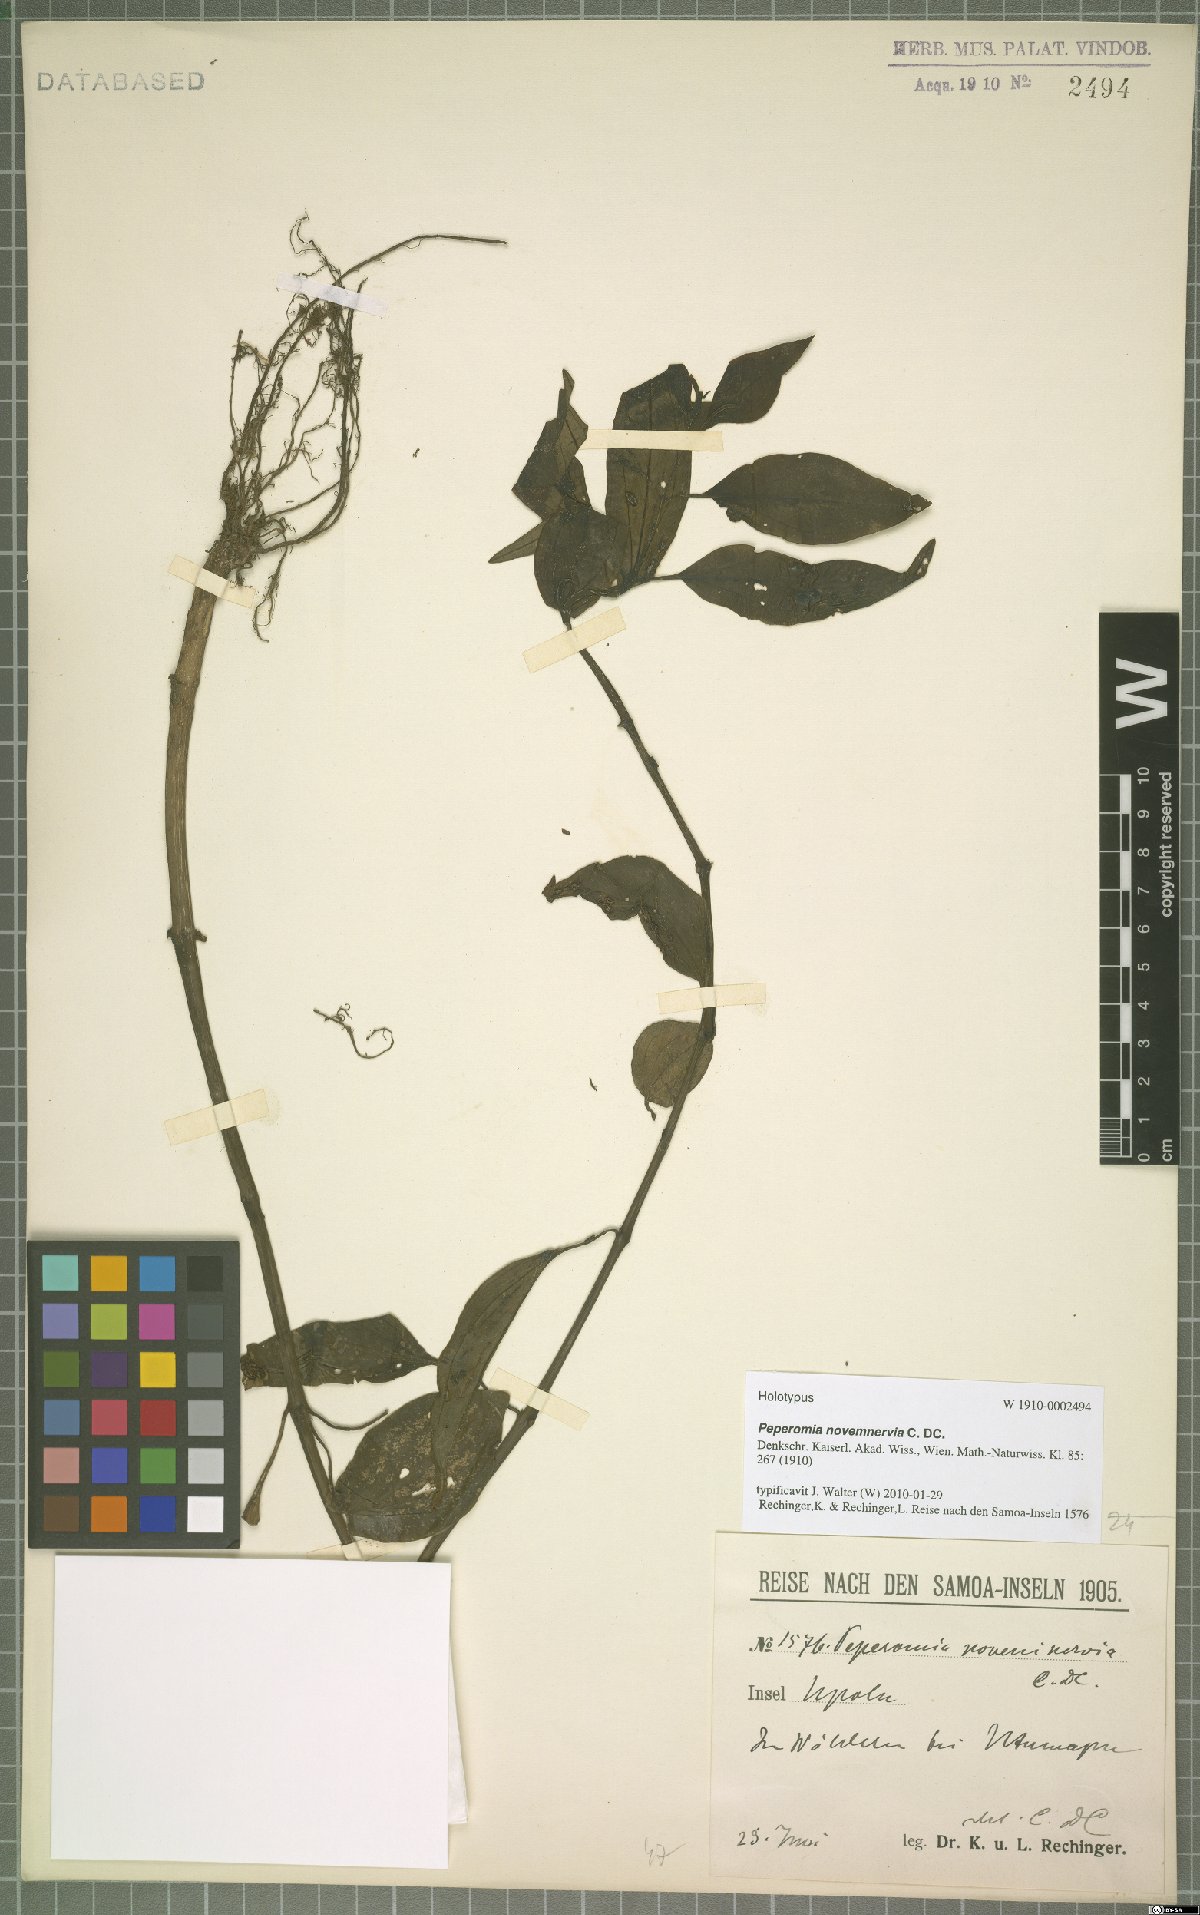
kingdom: Plantae
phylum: Tracheophyta
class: Magnoliopsida
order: Piperales
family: Piperaceae
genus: Peperomia
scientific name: Peperomia novemnervia
